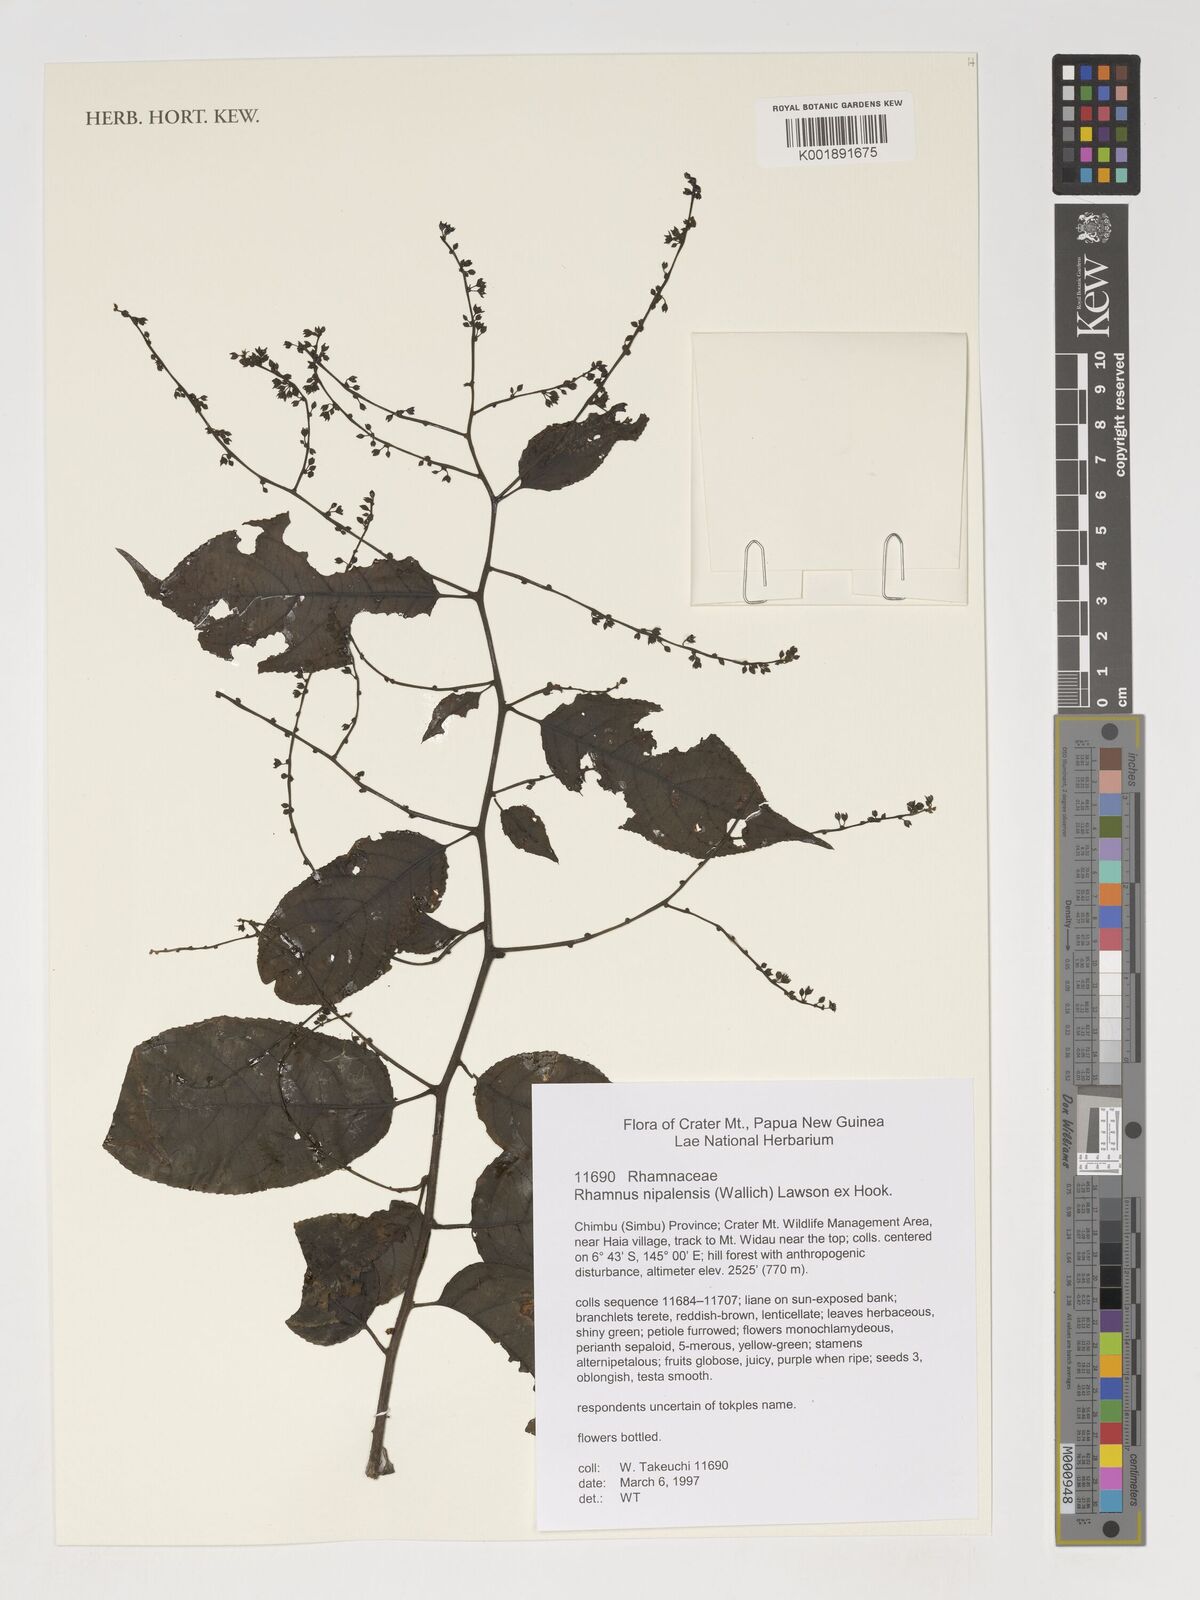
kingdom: Plantae
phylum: Tracheophyta
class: Magnoliopsida
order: Rosales
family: Rhamnaceae
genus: Rhamnus
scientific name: Rhamnus
